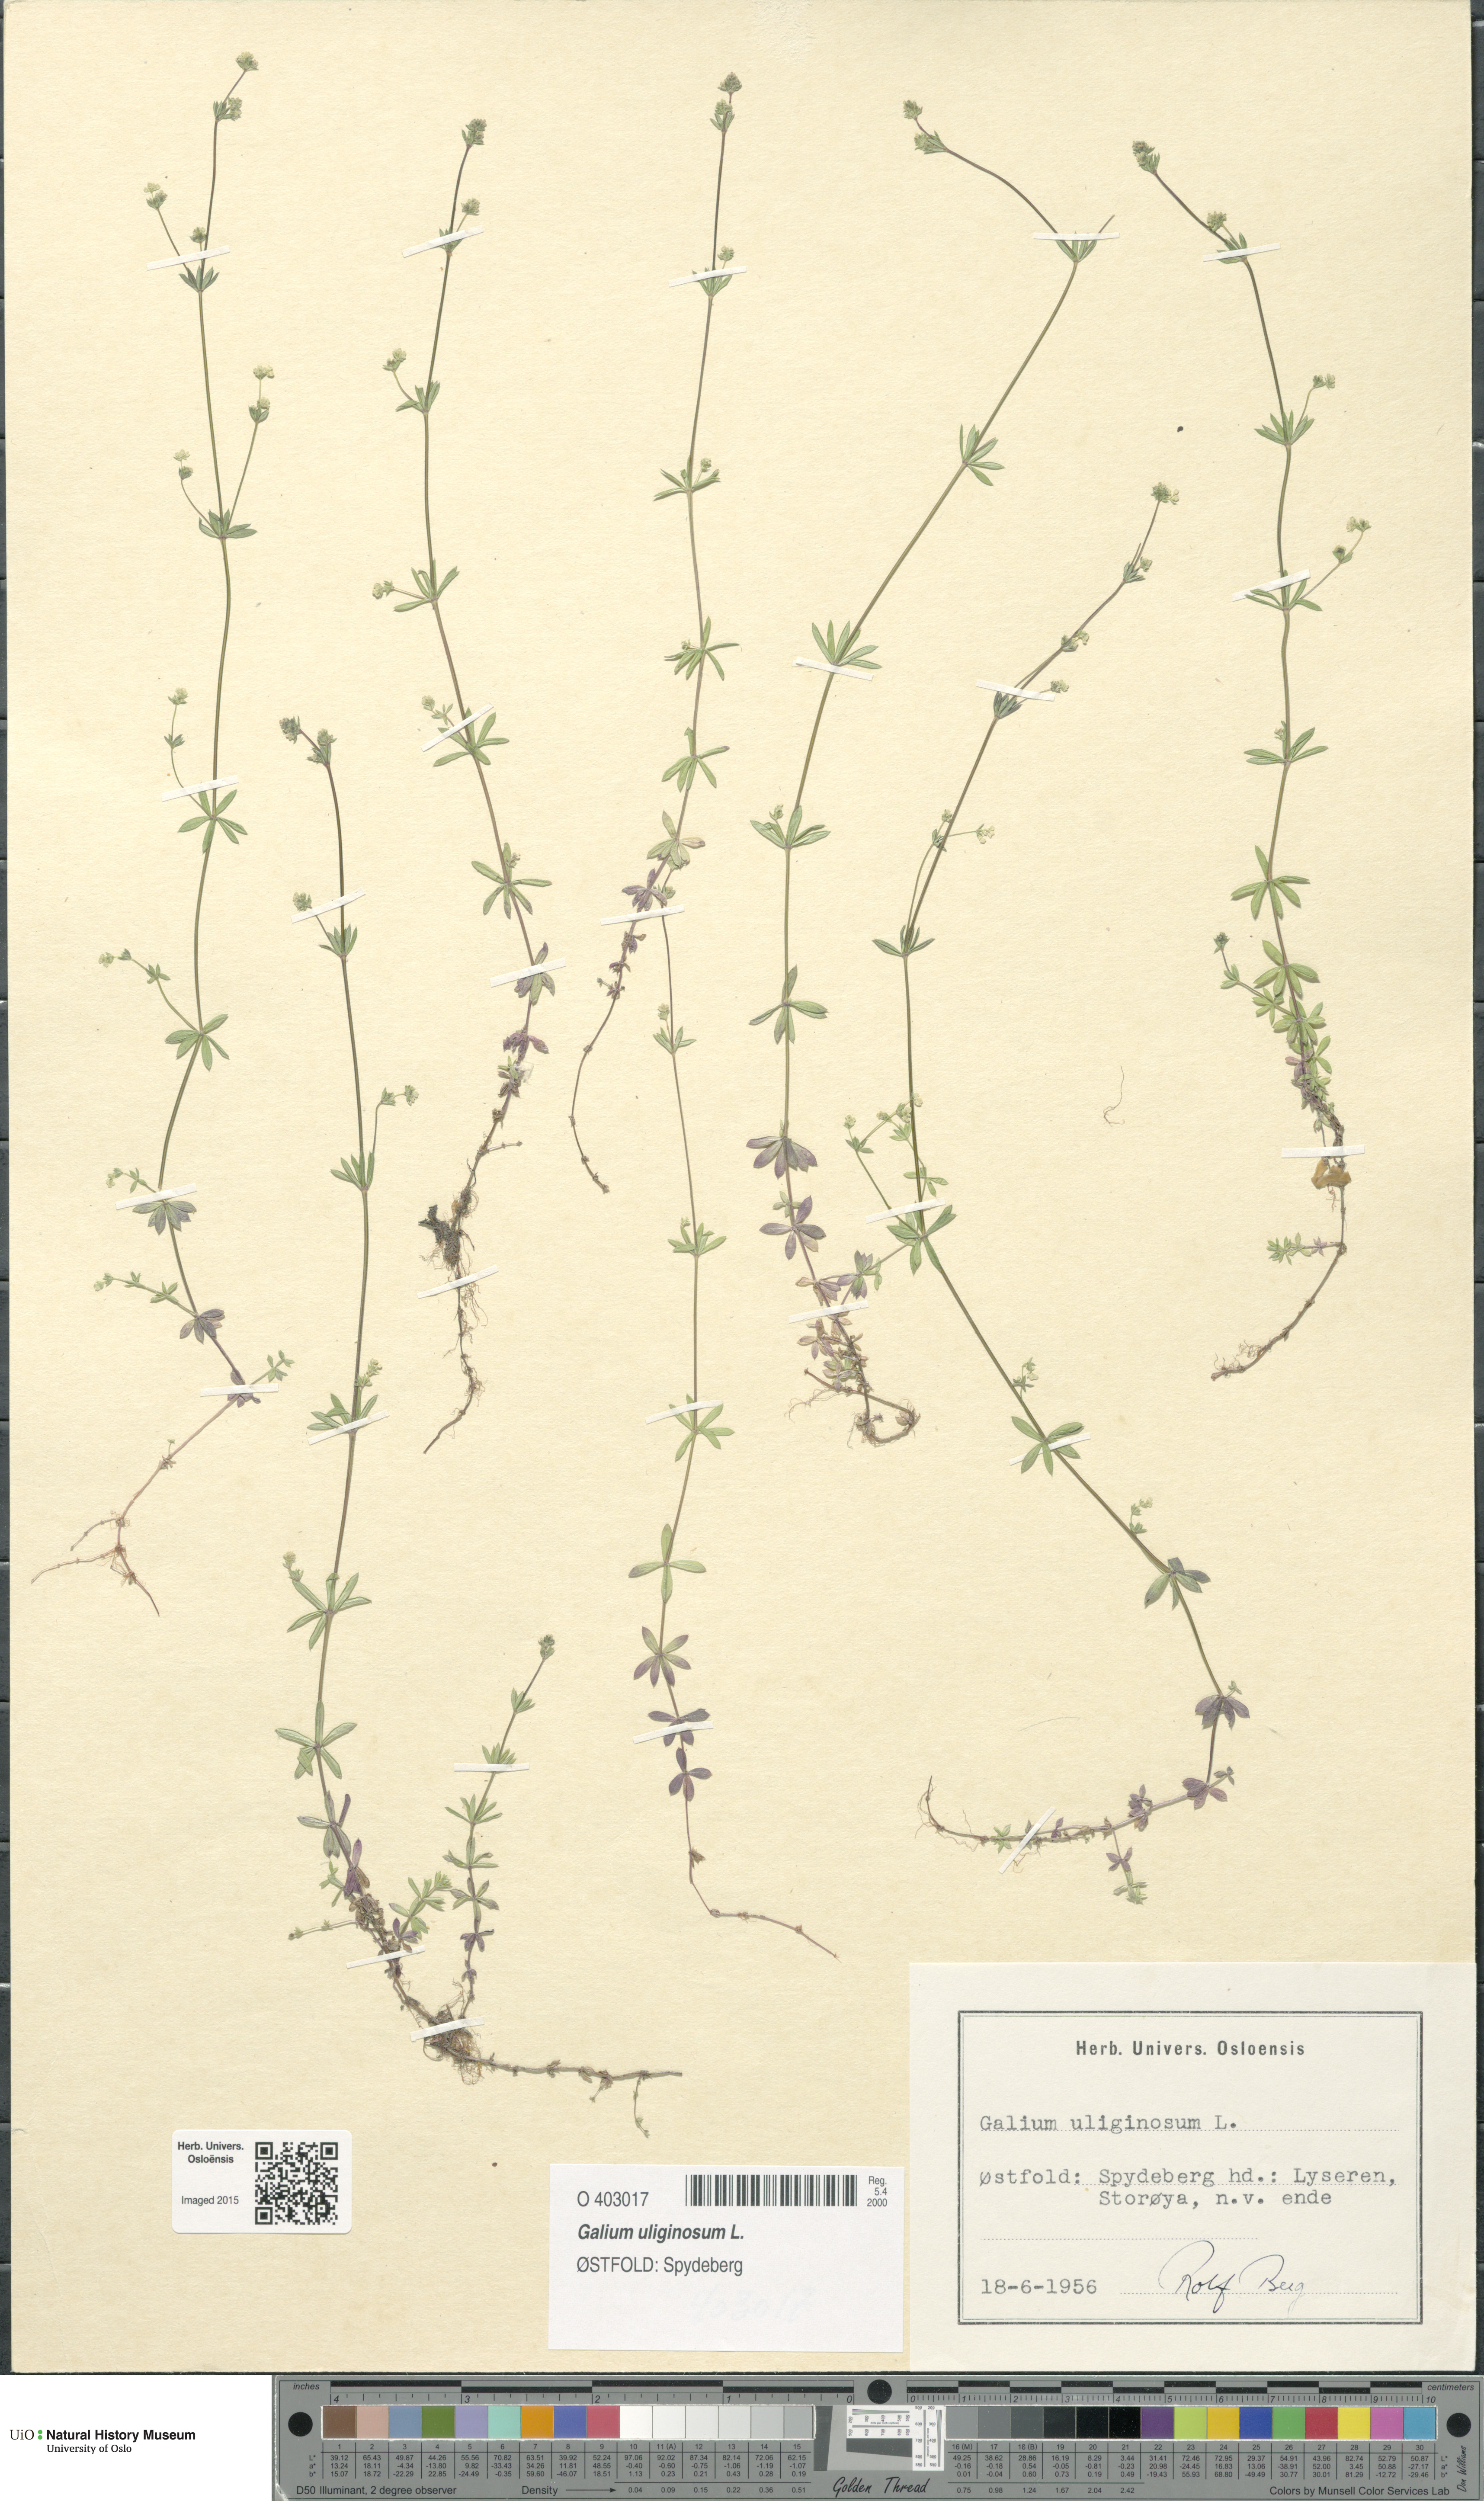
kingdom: Plantae
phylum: Tracheophyta
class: Magnoliopsida
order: Gentianales
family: Rubiaceae
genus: Galium
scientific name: Galium uliginosum
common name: Fen bedstraw
